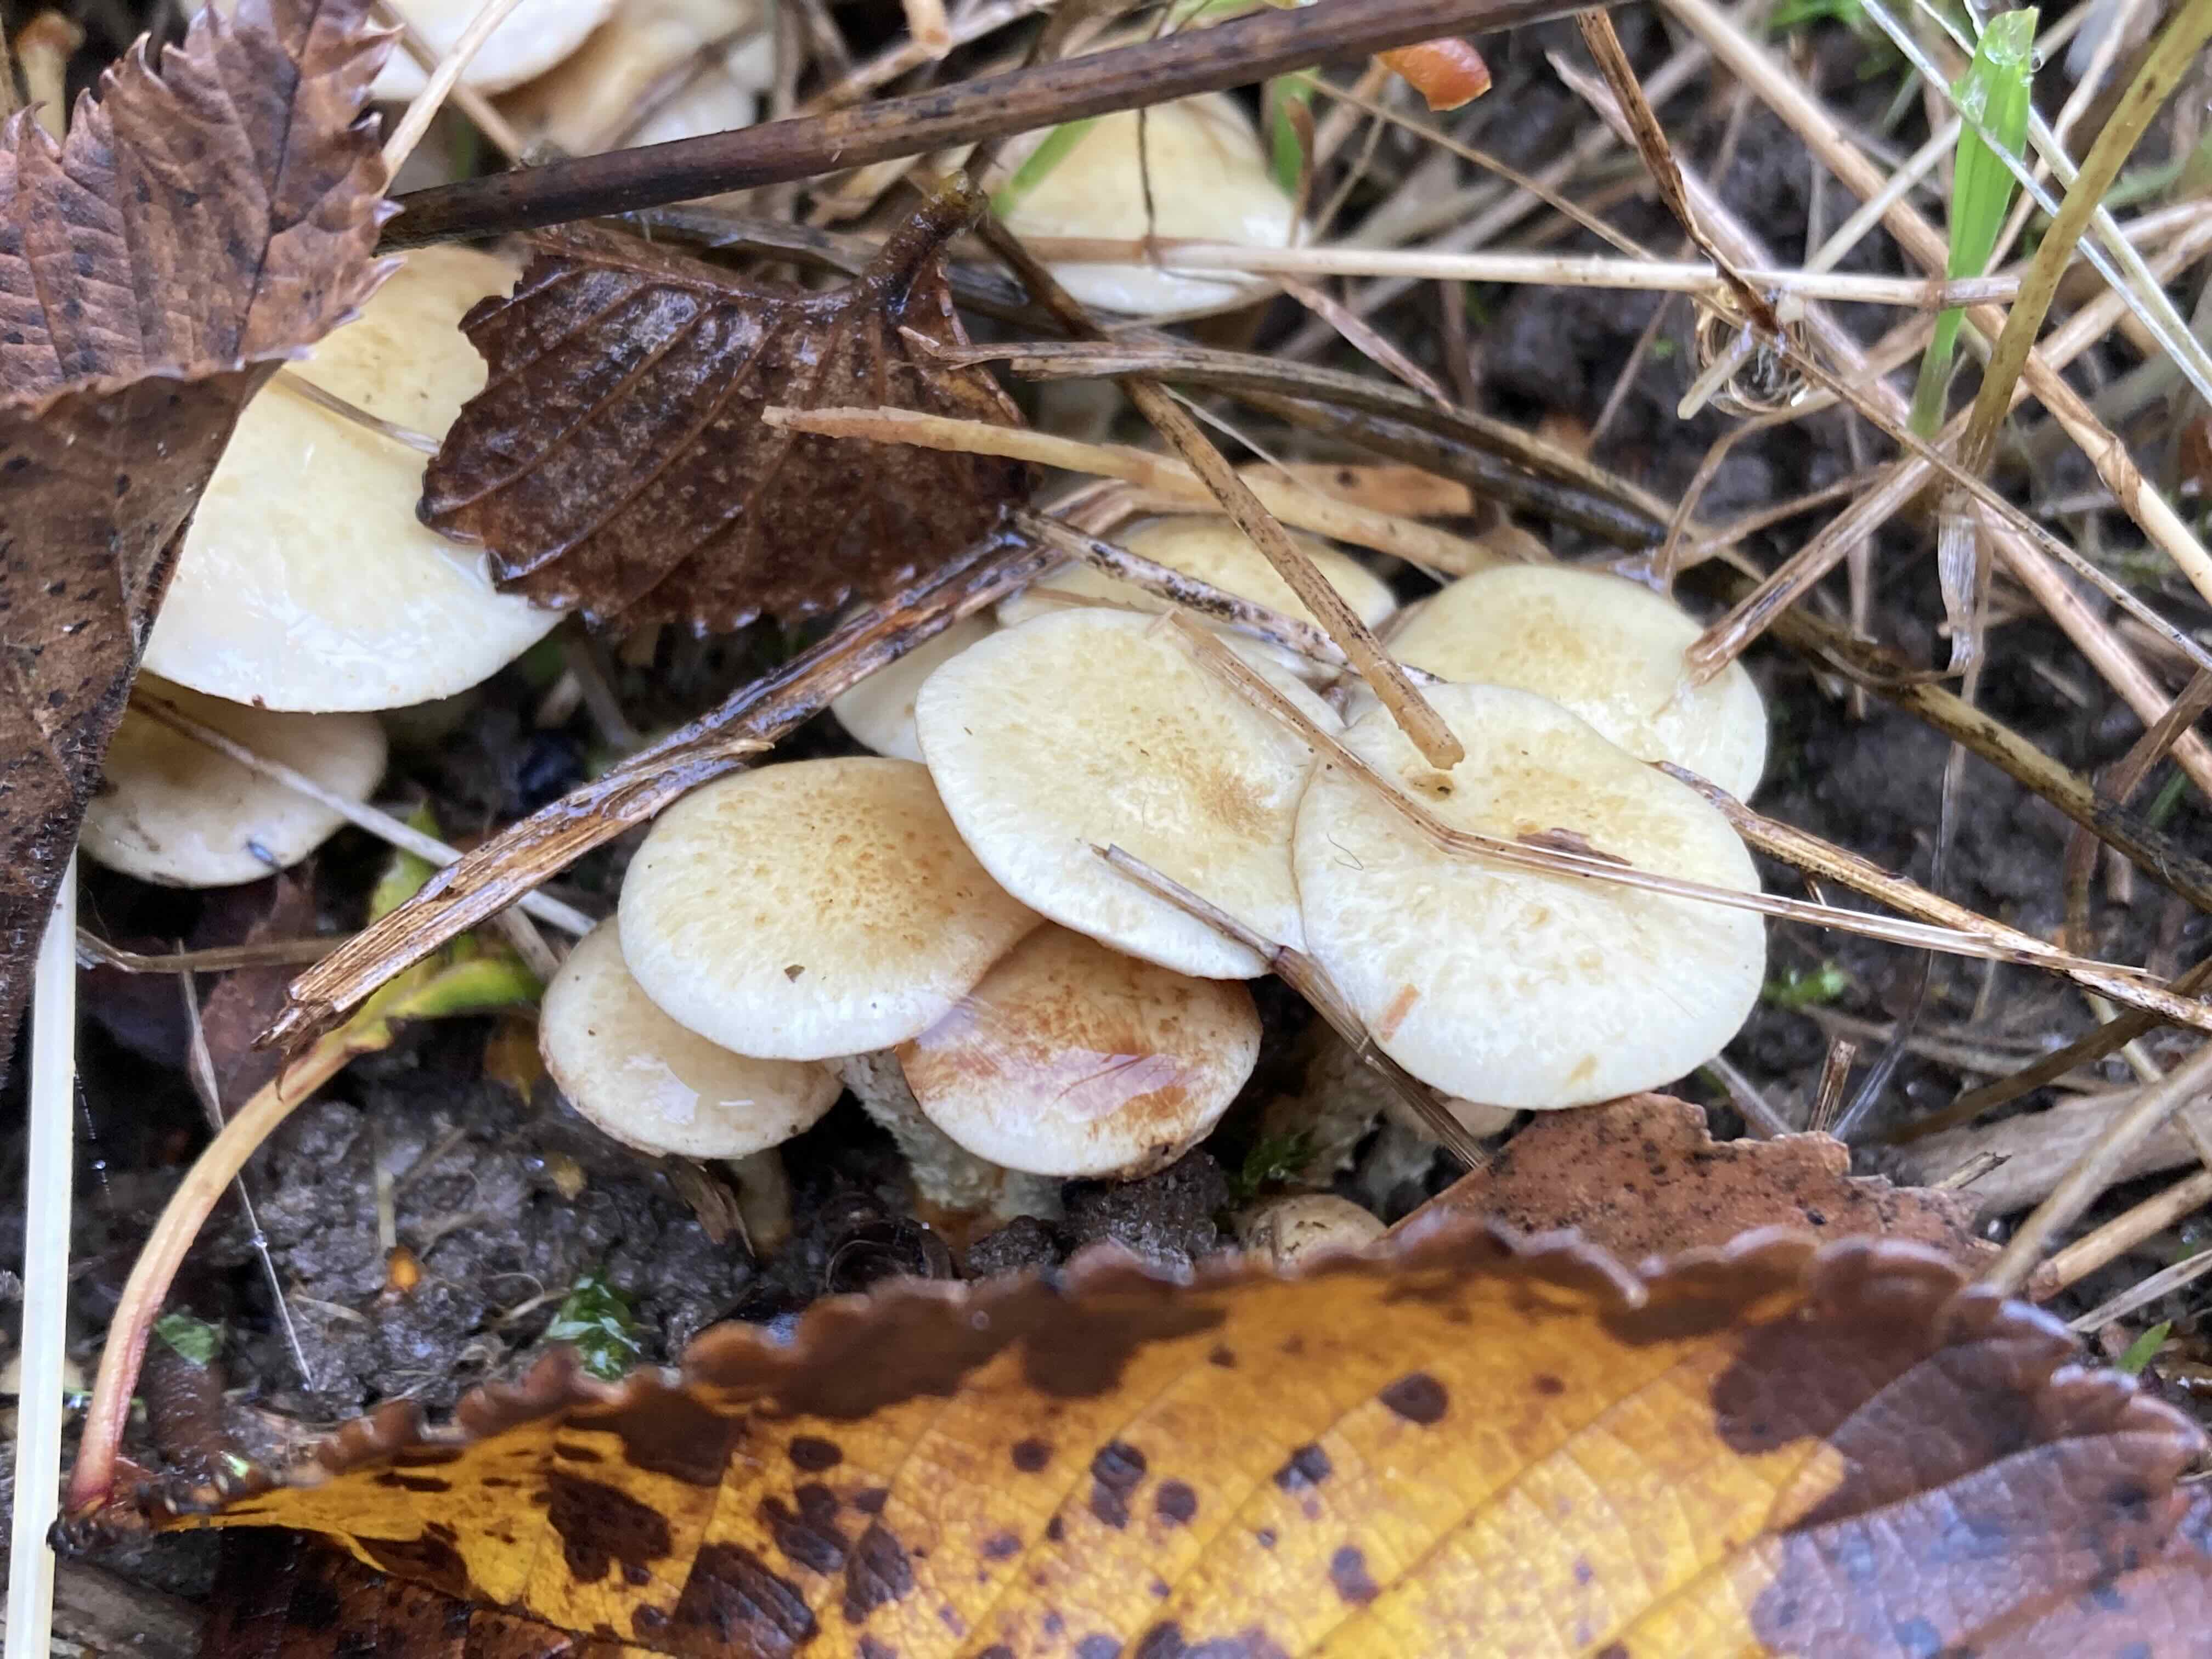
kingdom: Fungi
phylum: Basidiomycota
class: Agaricomycetes
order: Agaricales
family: Strophariaceae
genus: Pholiota
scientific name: Pholiota gummosa
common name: grøngul skælhat
